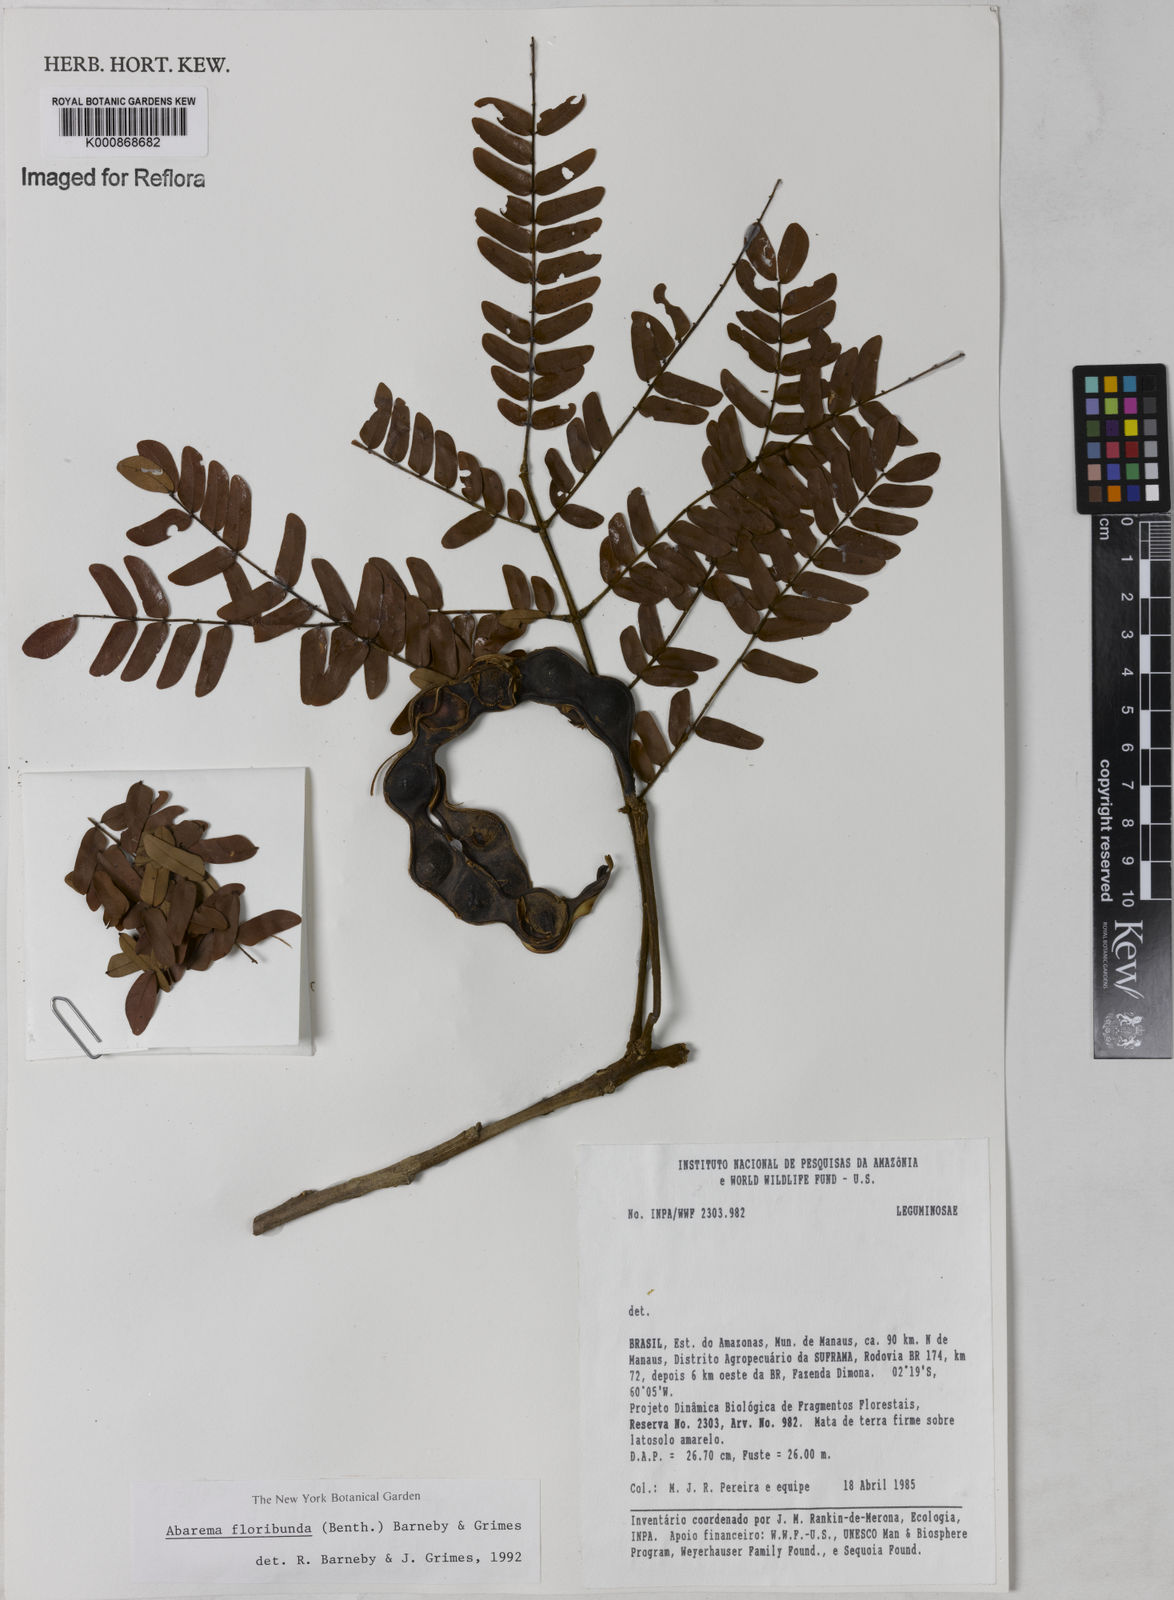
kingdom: Plantae
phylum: Tracheophyta
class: Magnoliopsida
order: Fabales
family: Fabaceae
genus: Jupunba
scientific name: Jupunba floribunda
